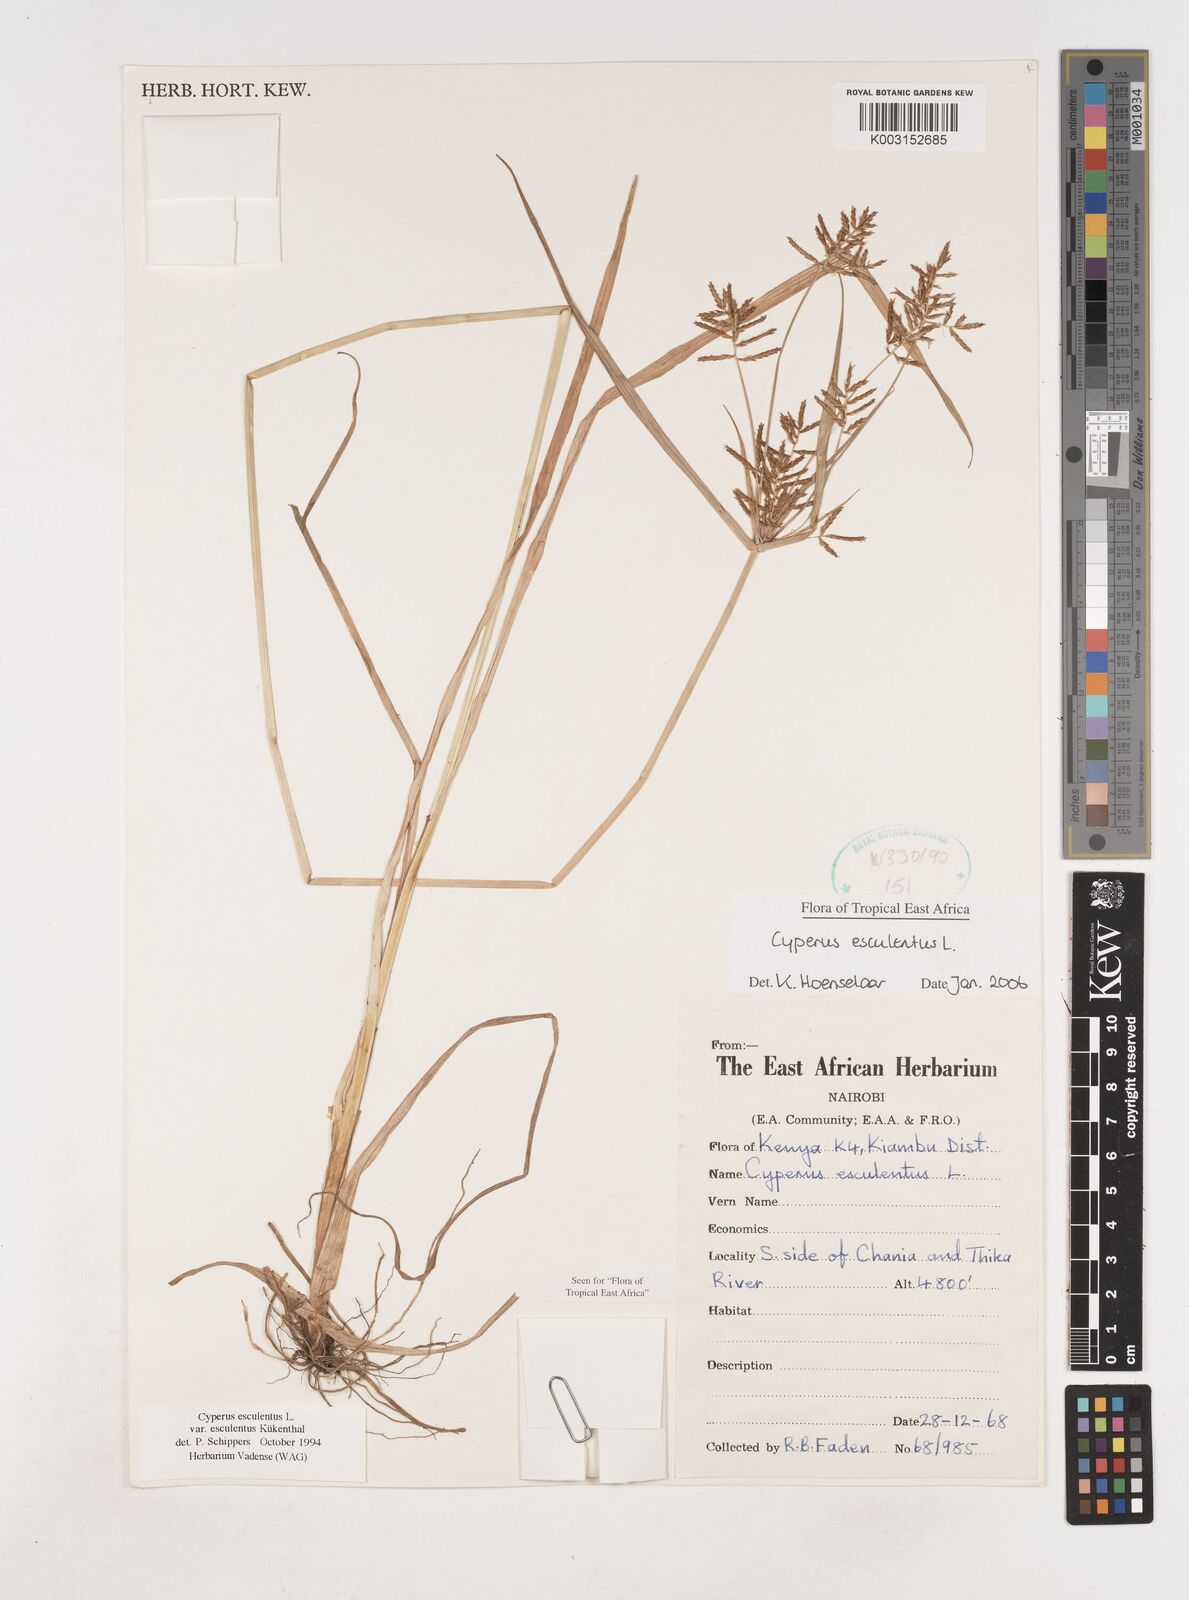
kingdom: Plantae
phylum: Tracheophyta
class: Liliopsida
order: Poales
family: Cyperaceae
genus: Cyperus
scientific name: Cyperus esculentus
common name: Yellow nutsedge
